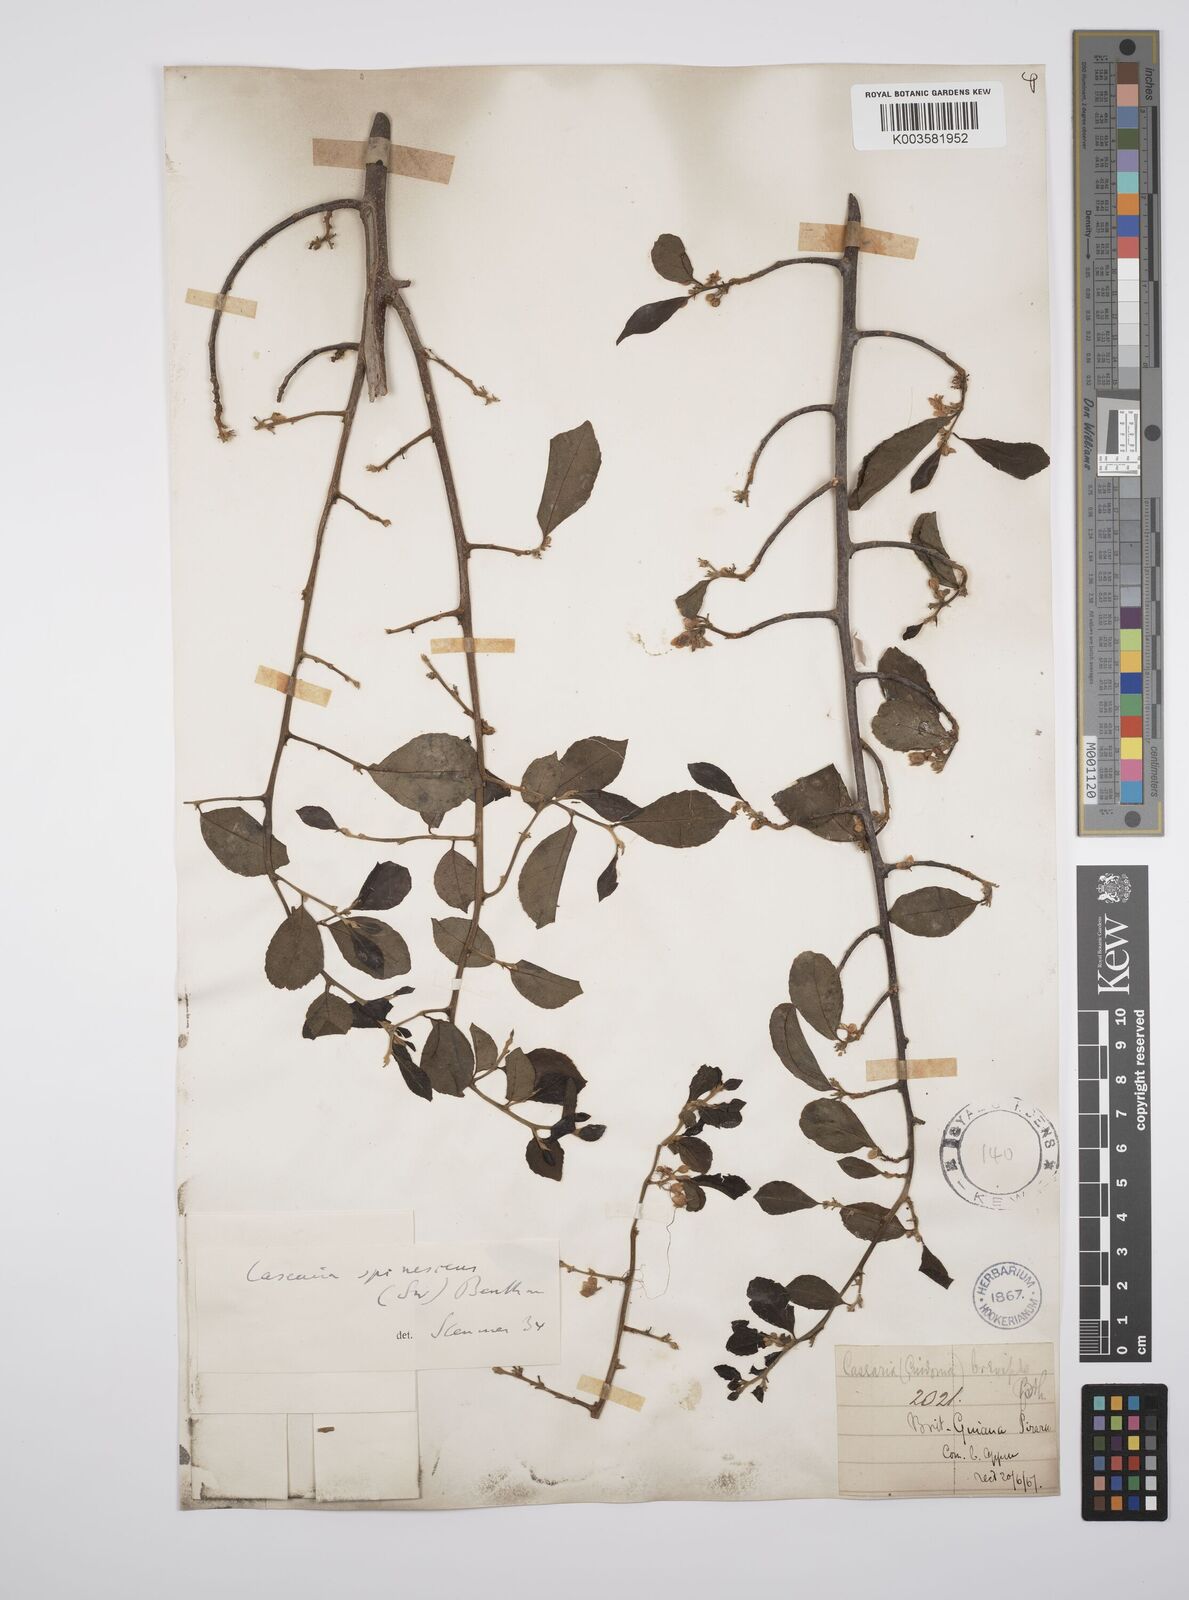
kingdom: Plantae
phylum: Tracheophyta
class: Magnoliopsida
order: Malpighiales
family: Salicaceae
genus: Casearia
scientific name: Casearia spinescens
